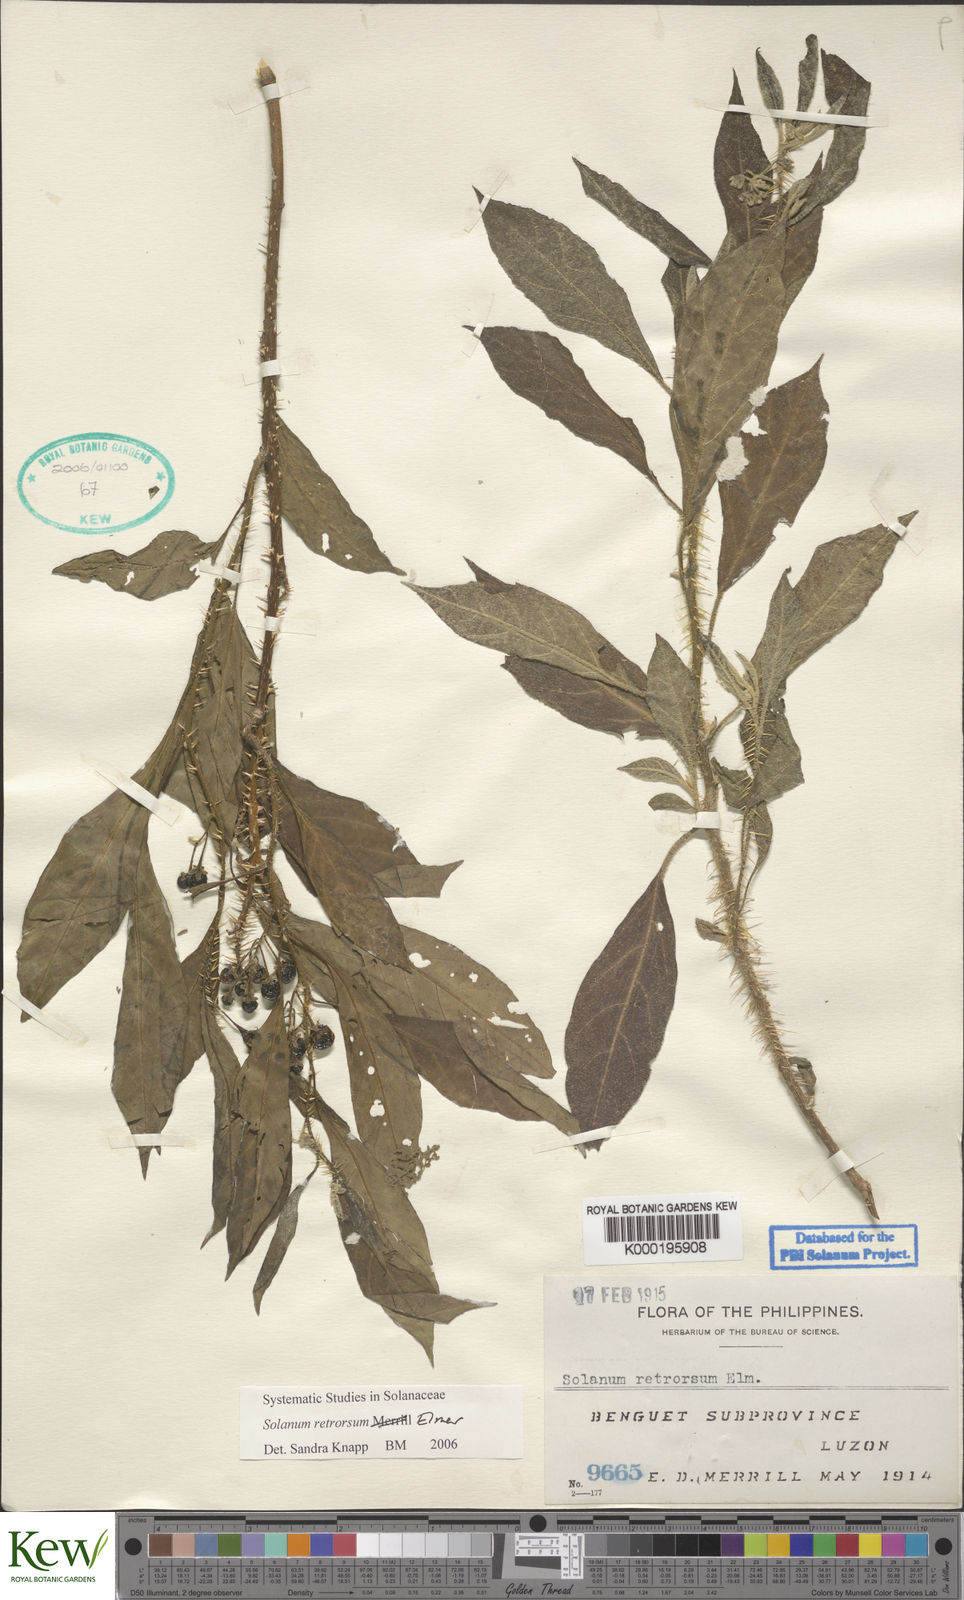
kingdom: Plantae
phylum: Tracheophyta
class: Magnoliopsida
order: Solanales
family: Solanaceae
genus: Solanum
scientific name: Solanum retrorsum
